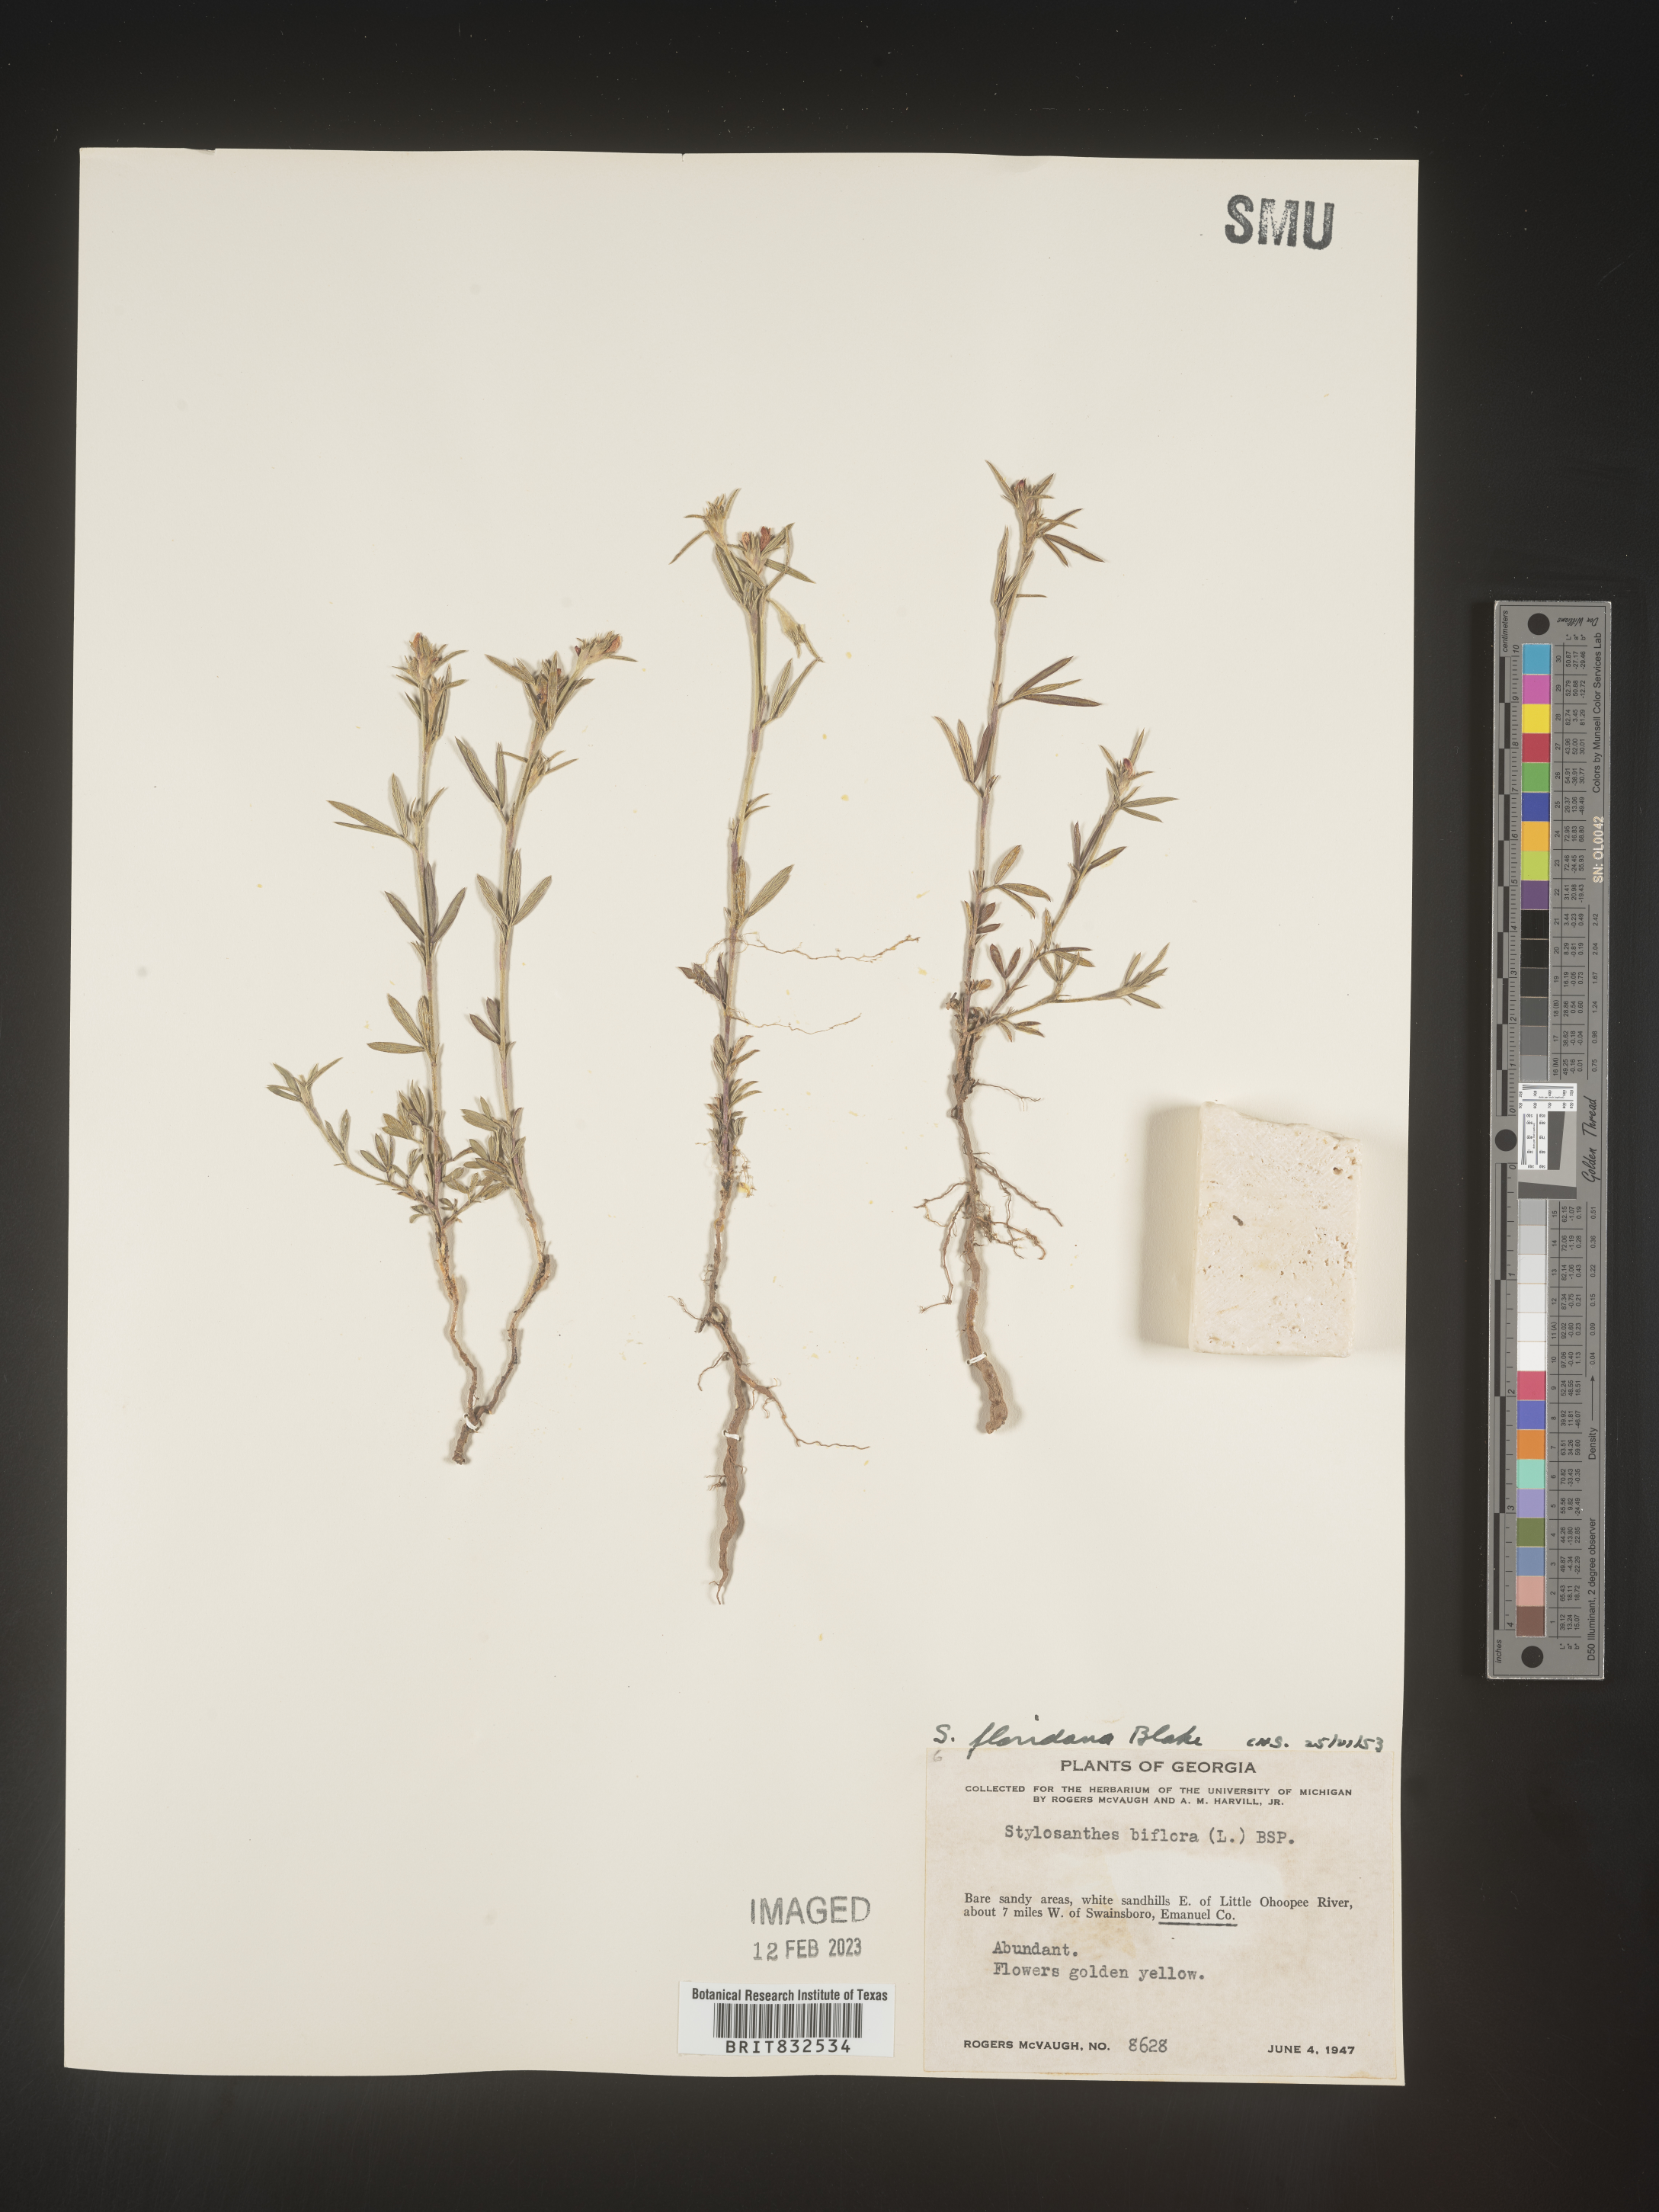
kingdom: Plantae
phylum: Tracheophyta
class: Magnoliopsida
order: Fabales
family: Fabaceae
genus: Stylosanthes
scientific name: Stylosanthes
